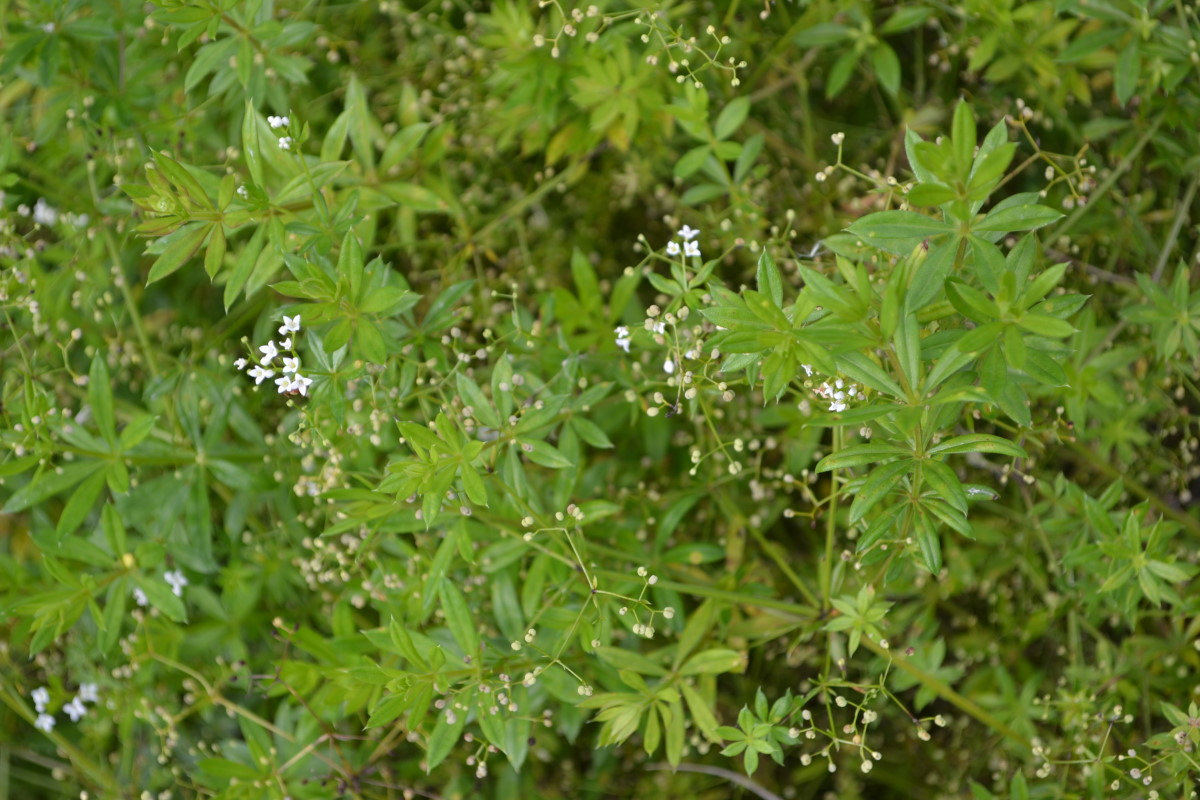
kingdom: Plantae
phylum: Tracheophyta
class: Magnoliopsida
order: Gentianales
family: Rubiaceae
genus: Galium
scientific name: Galium rivale
